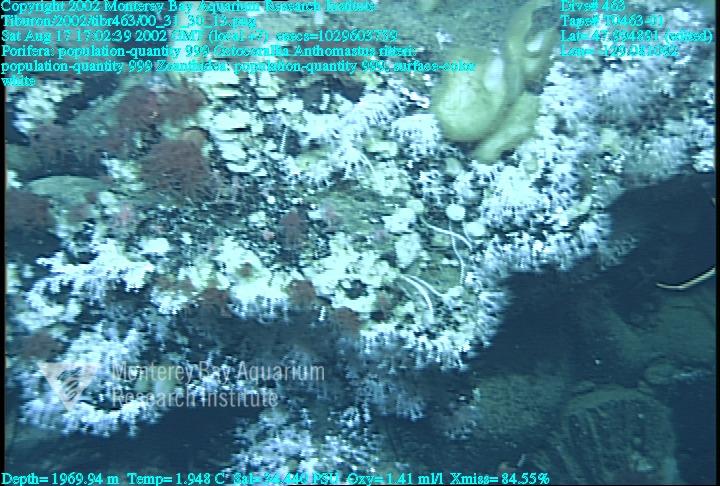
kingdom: Animalia
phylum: Porifera
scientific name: Porifera
